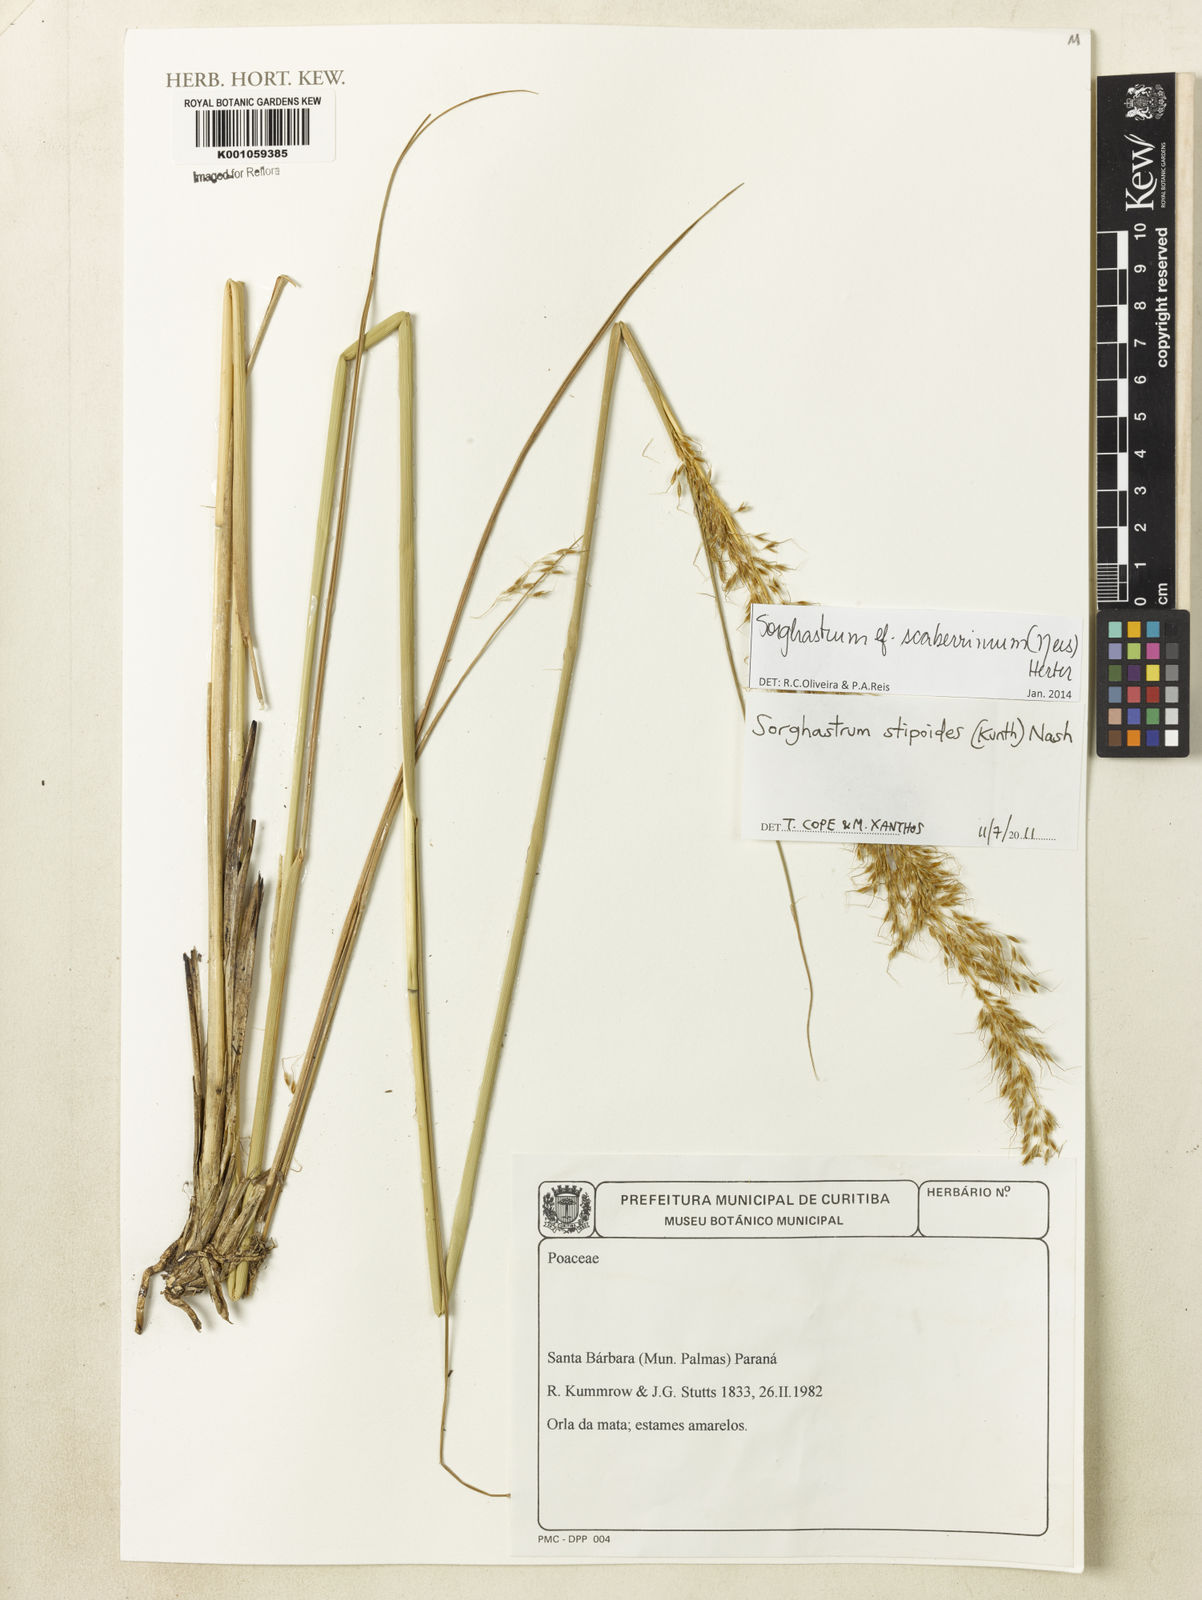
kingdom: Plantae
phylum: Tracheophyta
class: Liliopsida
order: Poales
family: Poaceae
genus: Sorghastrum
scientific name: Sorghastrum scaberrimum
